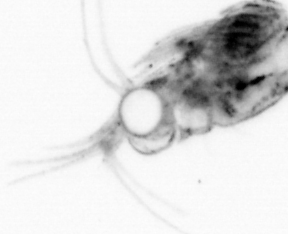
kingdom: Animalia
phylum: Annelida
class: Polychaeta
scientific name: Polychaeta
